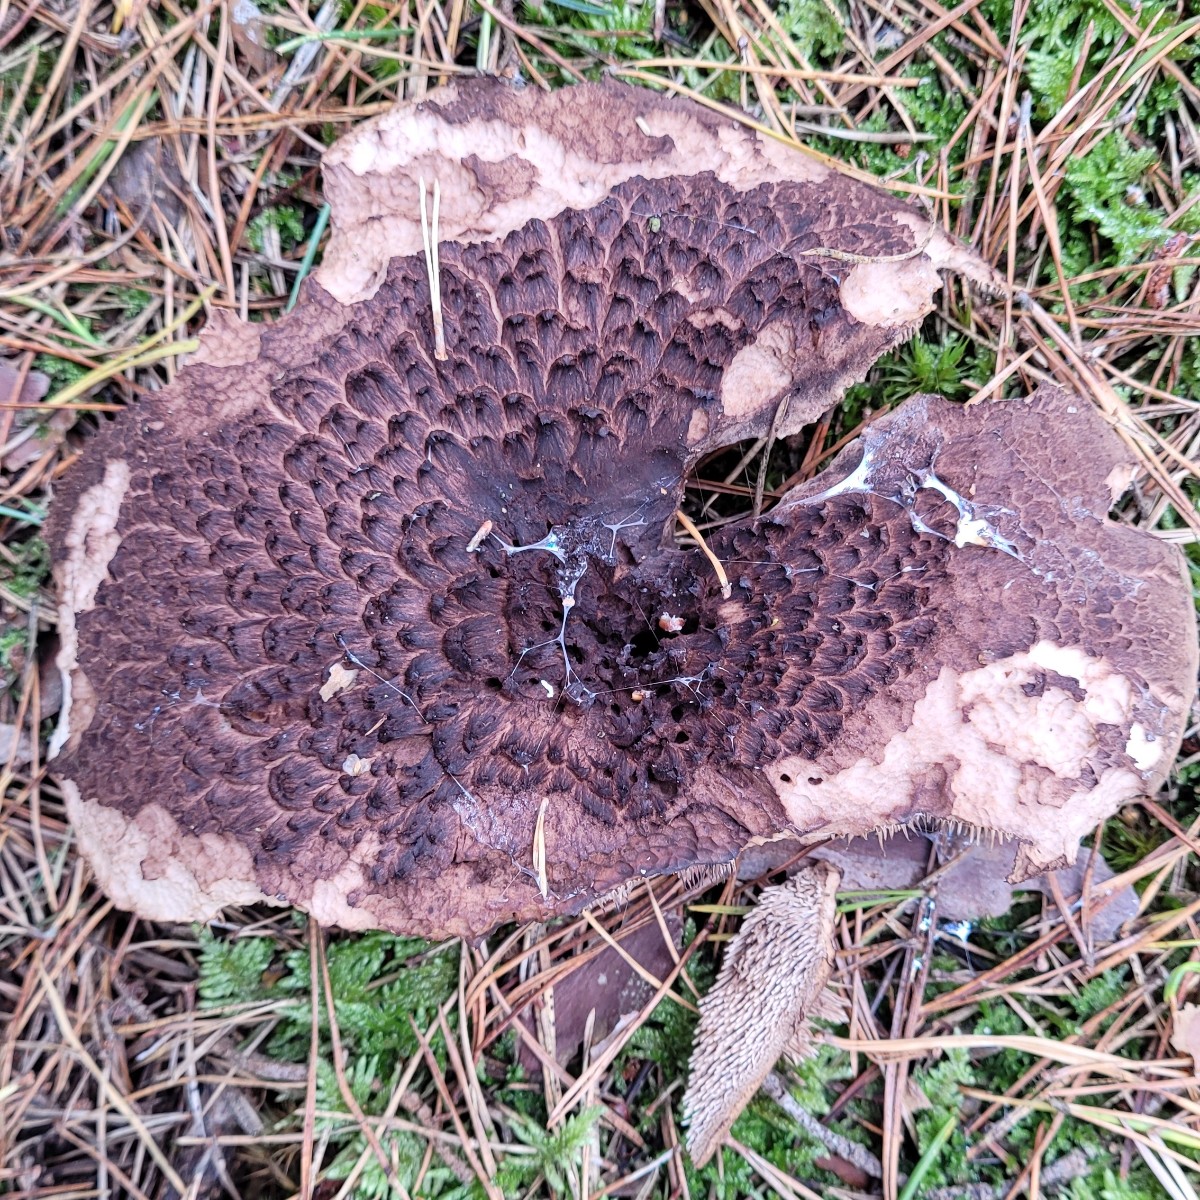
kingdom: Fungi
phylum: Basidiomycota
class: Agaricomycetes
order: Thelephorales
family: Bankeraceae
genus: Sarcodon
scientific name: Sarcodon squamosus
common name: småskællet kødpigsvamp
